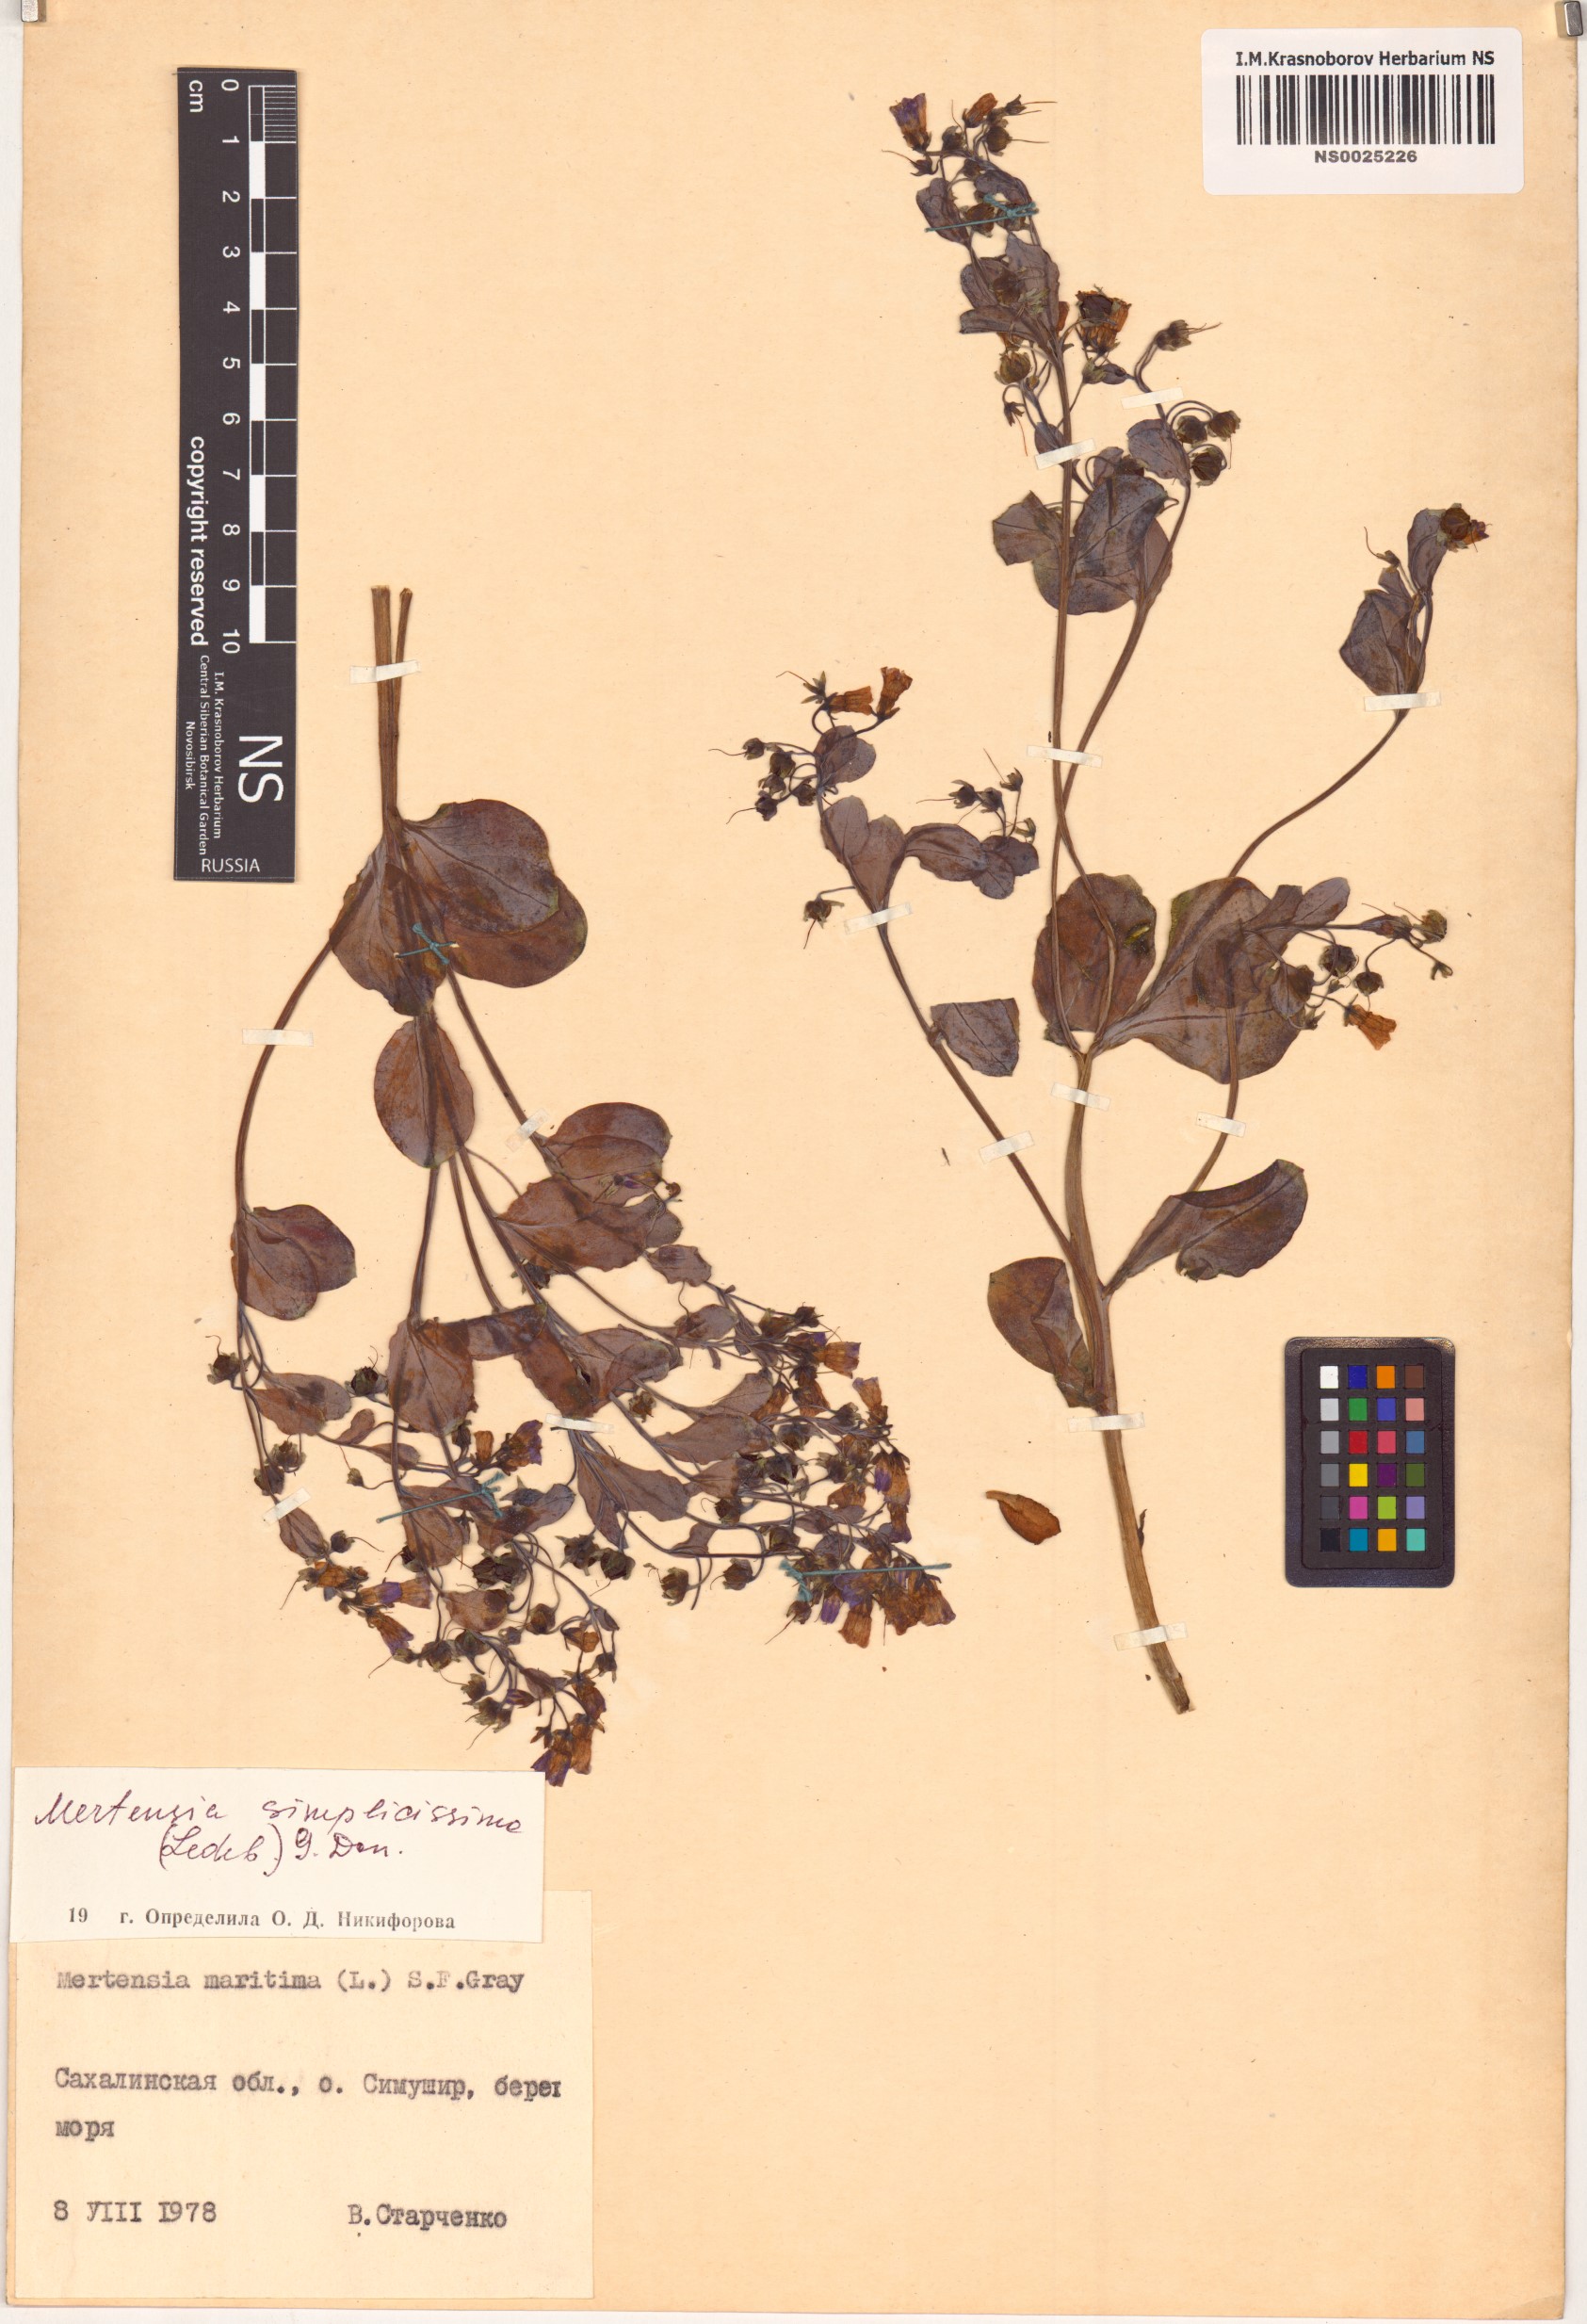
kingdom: Plantae
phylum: Tracheophyta
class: Magnoliopsida
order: Boraginales
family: Boraginaceae
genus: Mertensia
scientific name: Mertensia simplicissima
